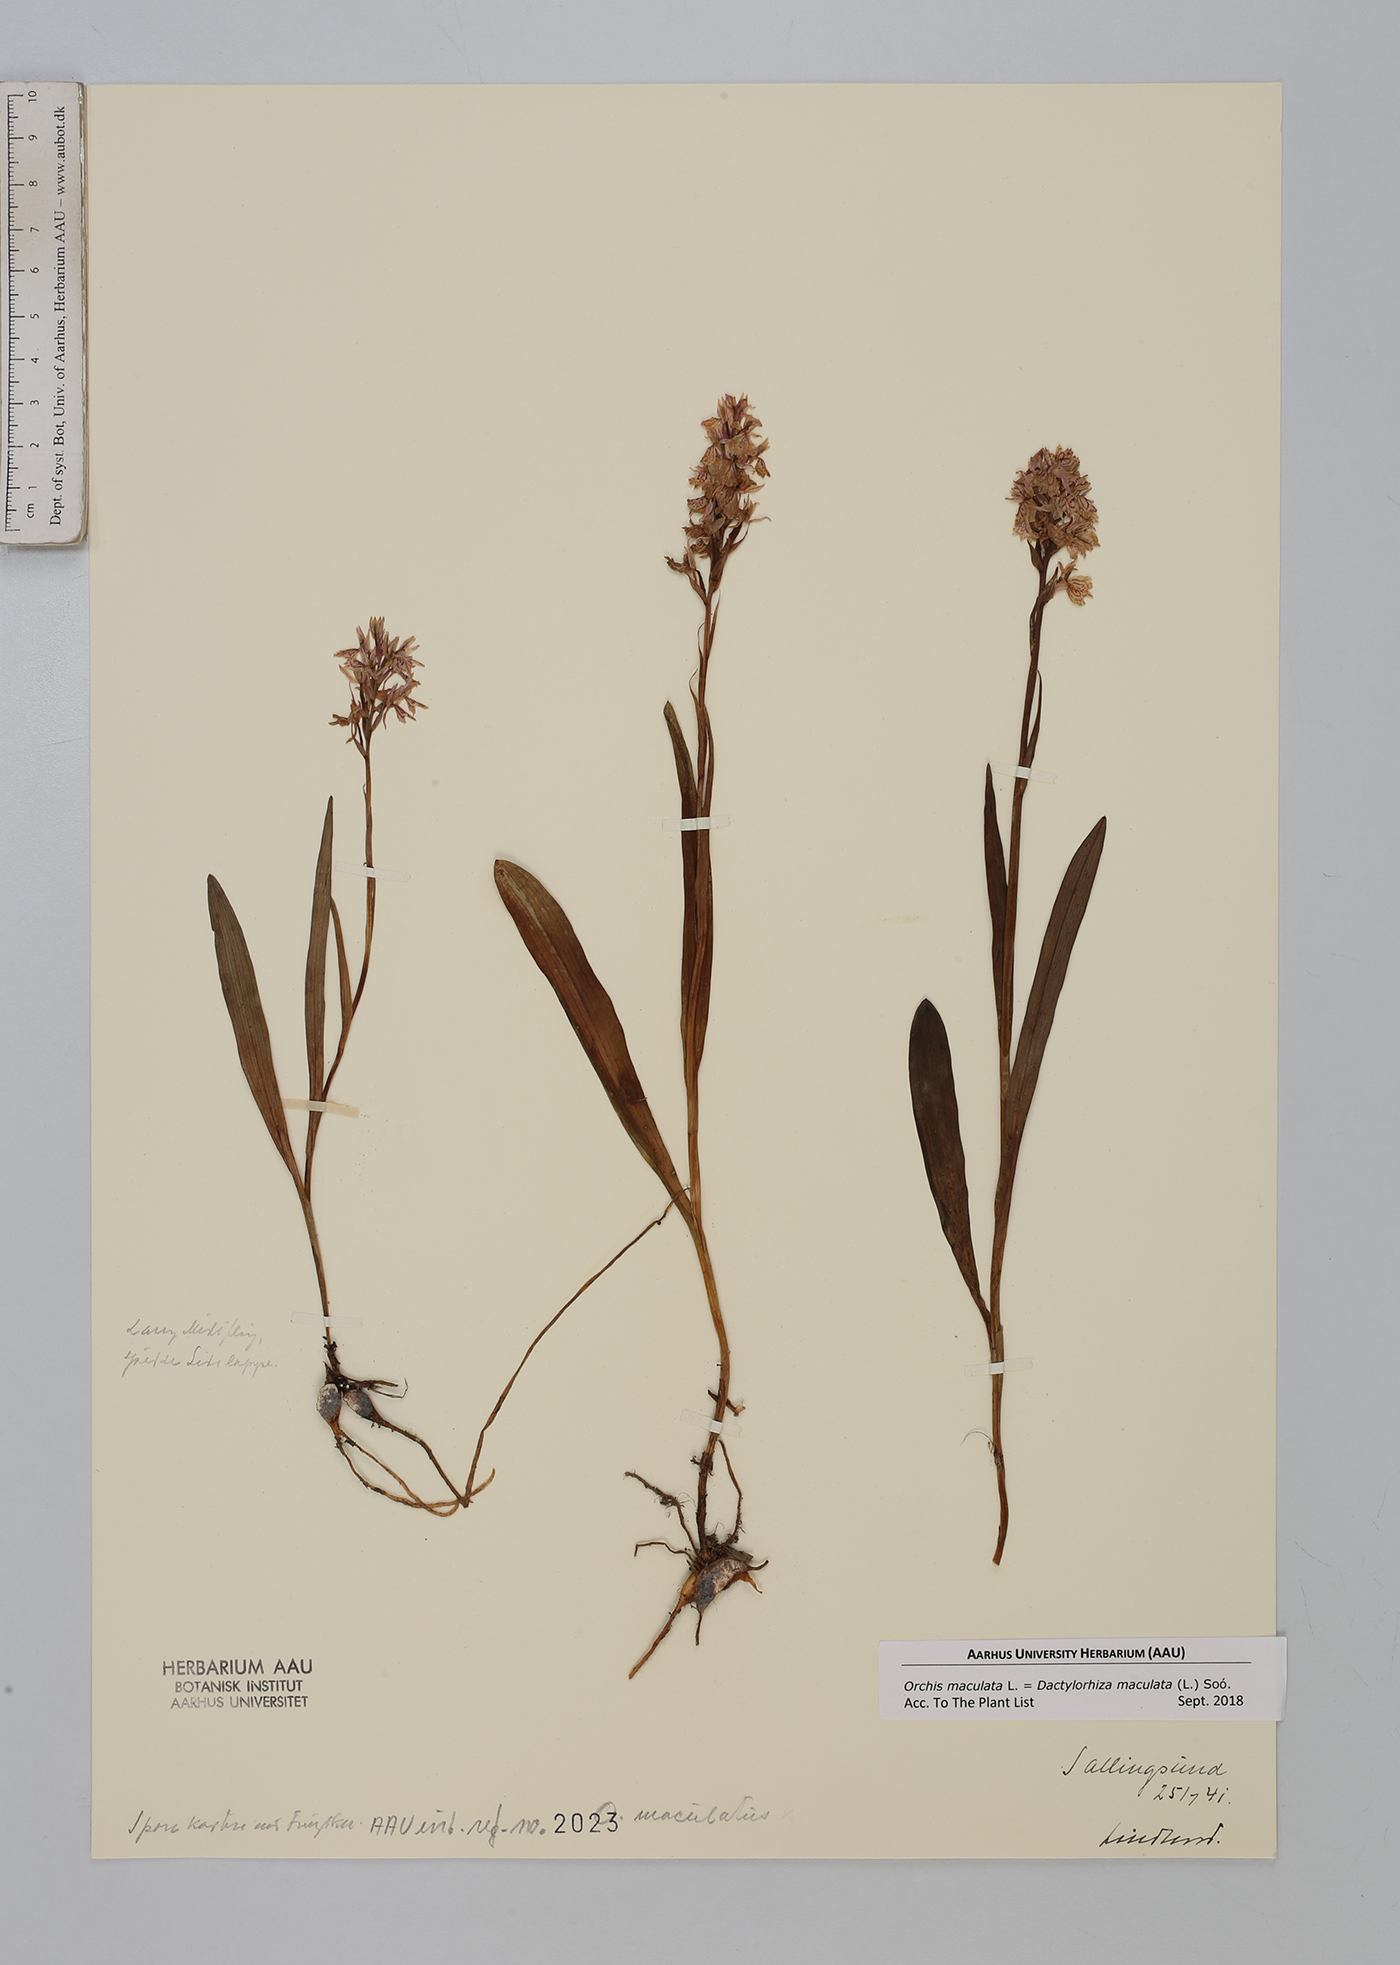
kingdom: Plantae
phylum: Tracheophyta
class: Liliopsida
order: Asparagales
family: Orchidaceae
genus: Dactylorhiza
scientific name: Dactylorhiza maculata
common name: Heath spotted-orchid
